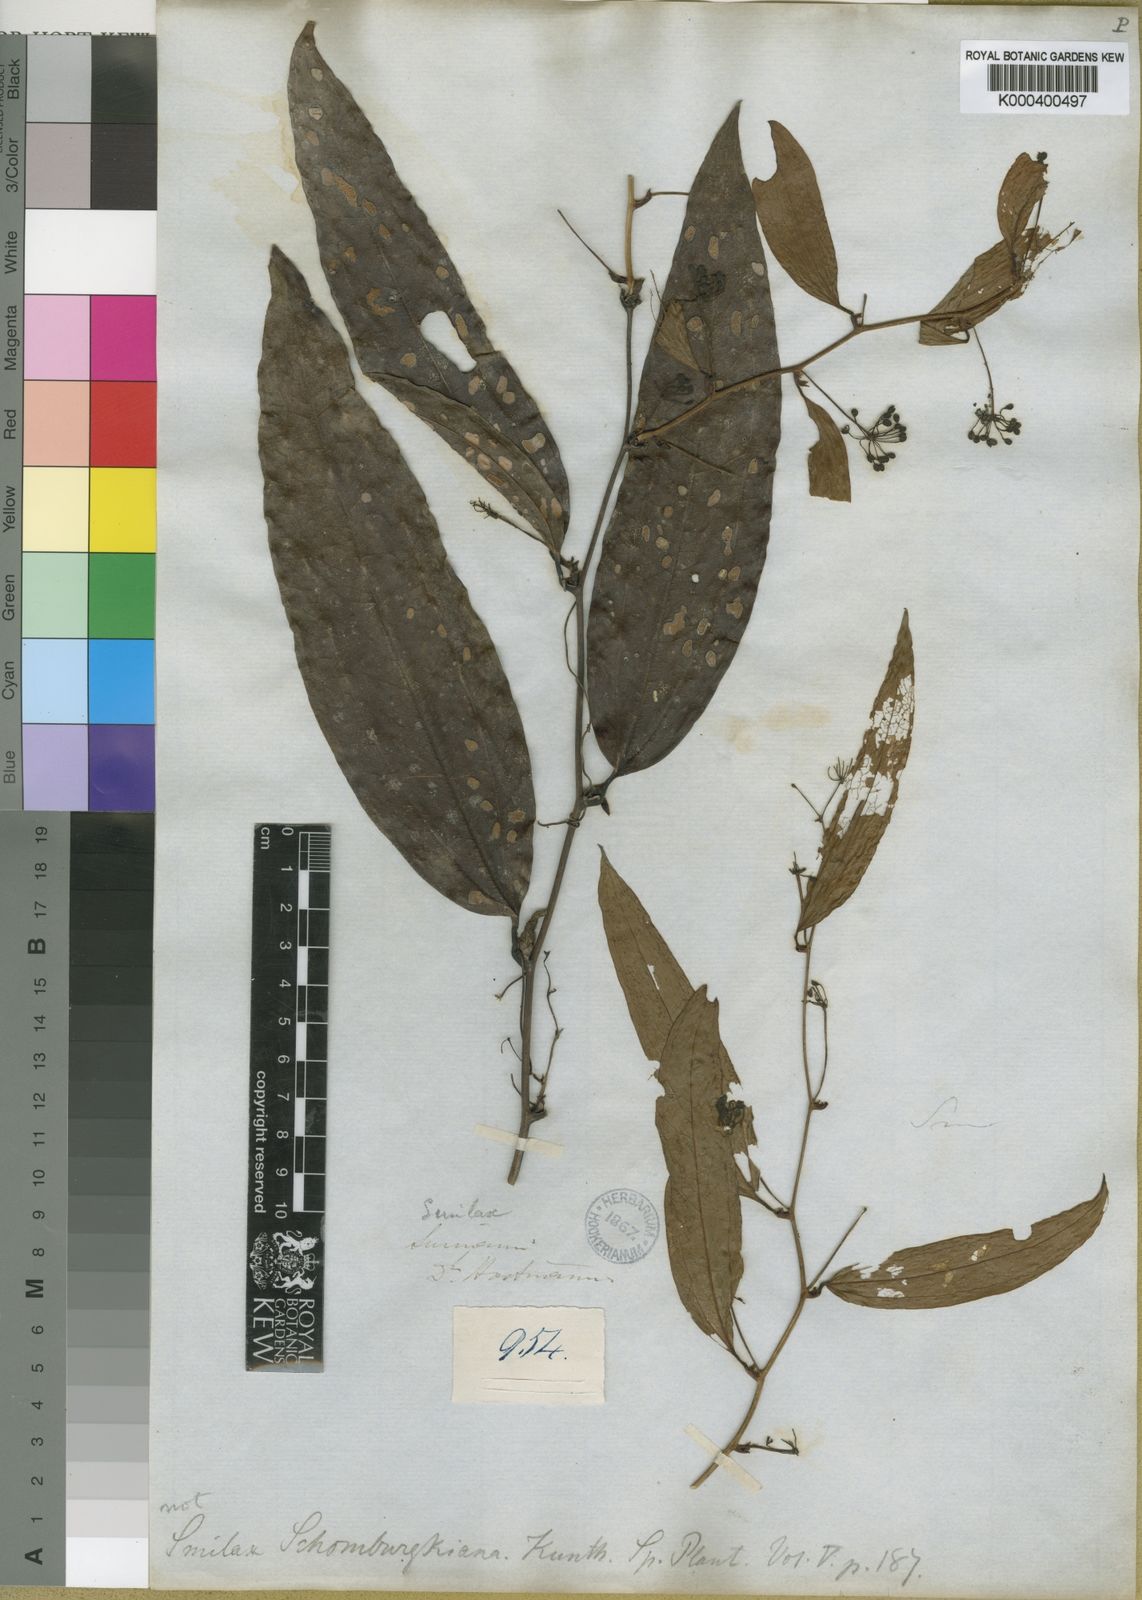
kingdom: Plantae
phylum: Tracheophyta
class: Liliopsida
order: Liliales
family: Smilacaceae
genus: Smilax
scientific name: Smilax schomburgkiana
